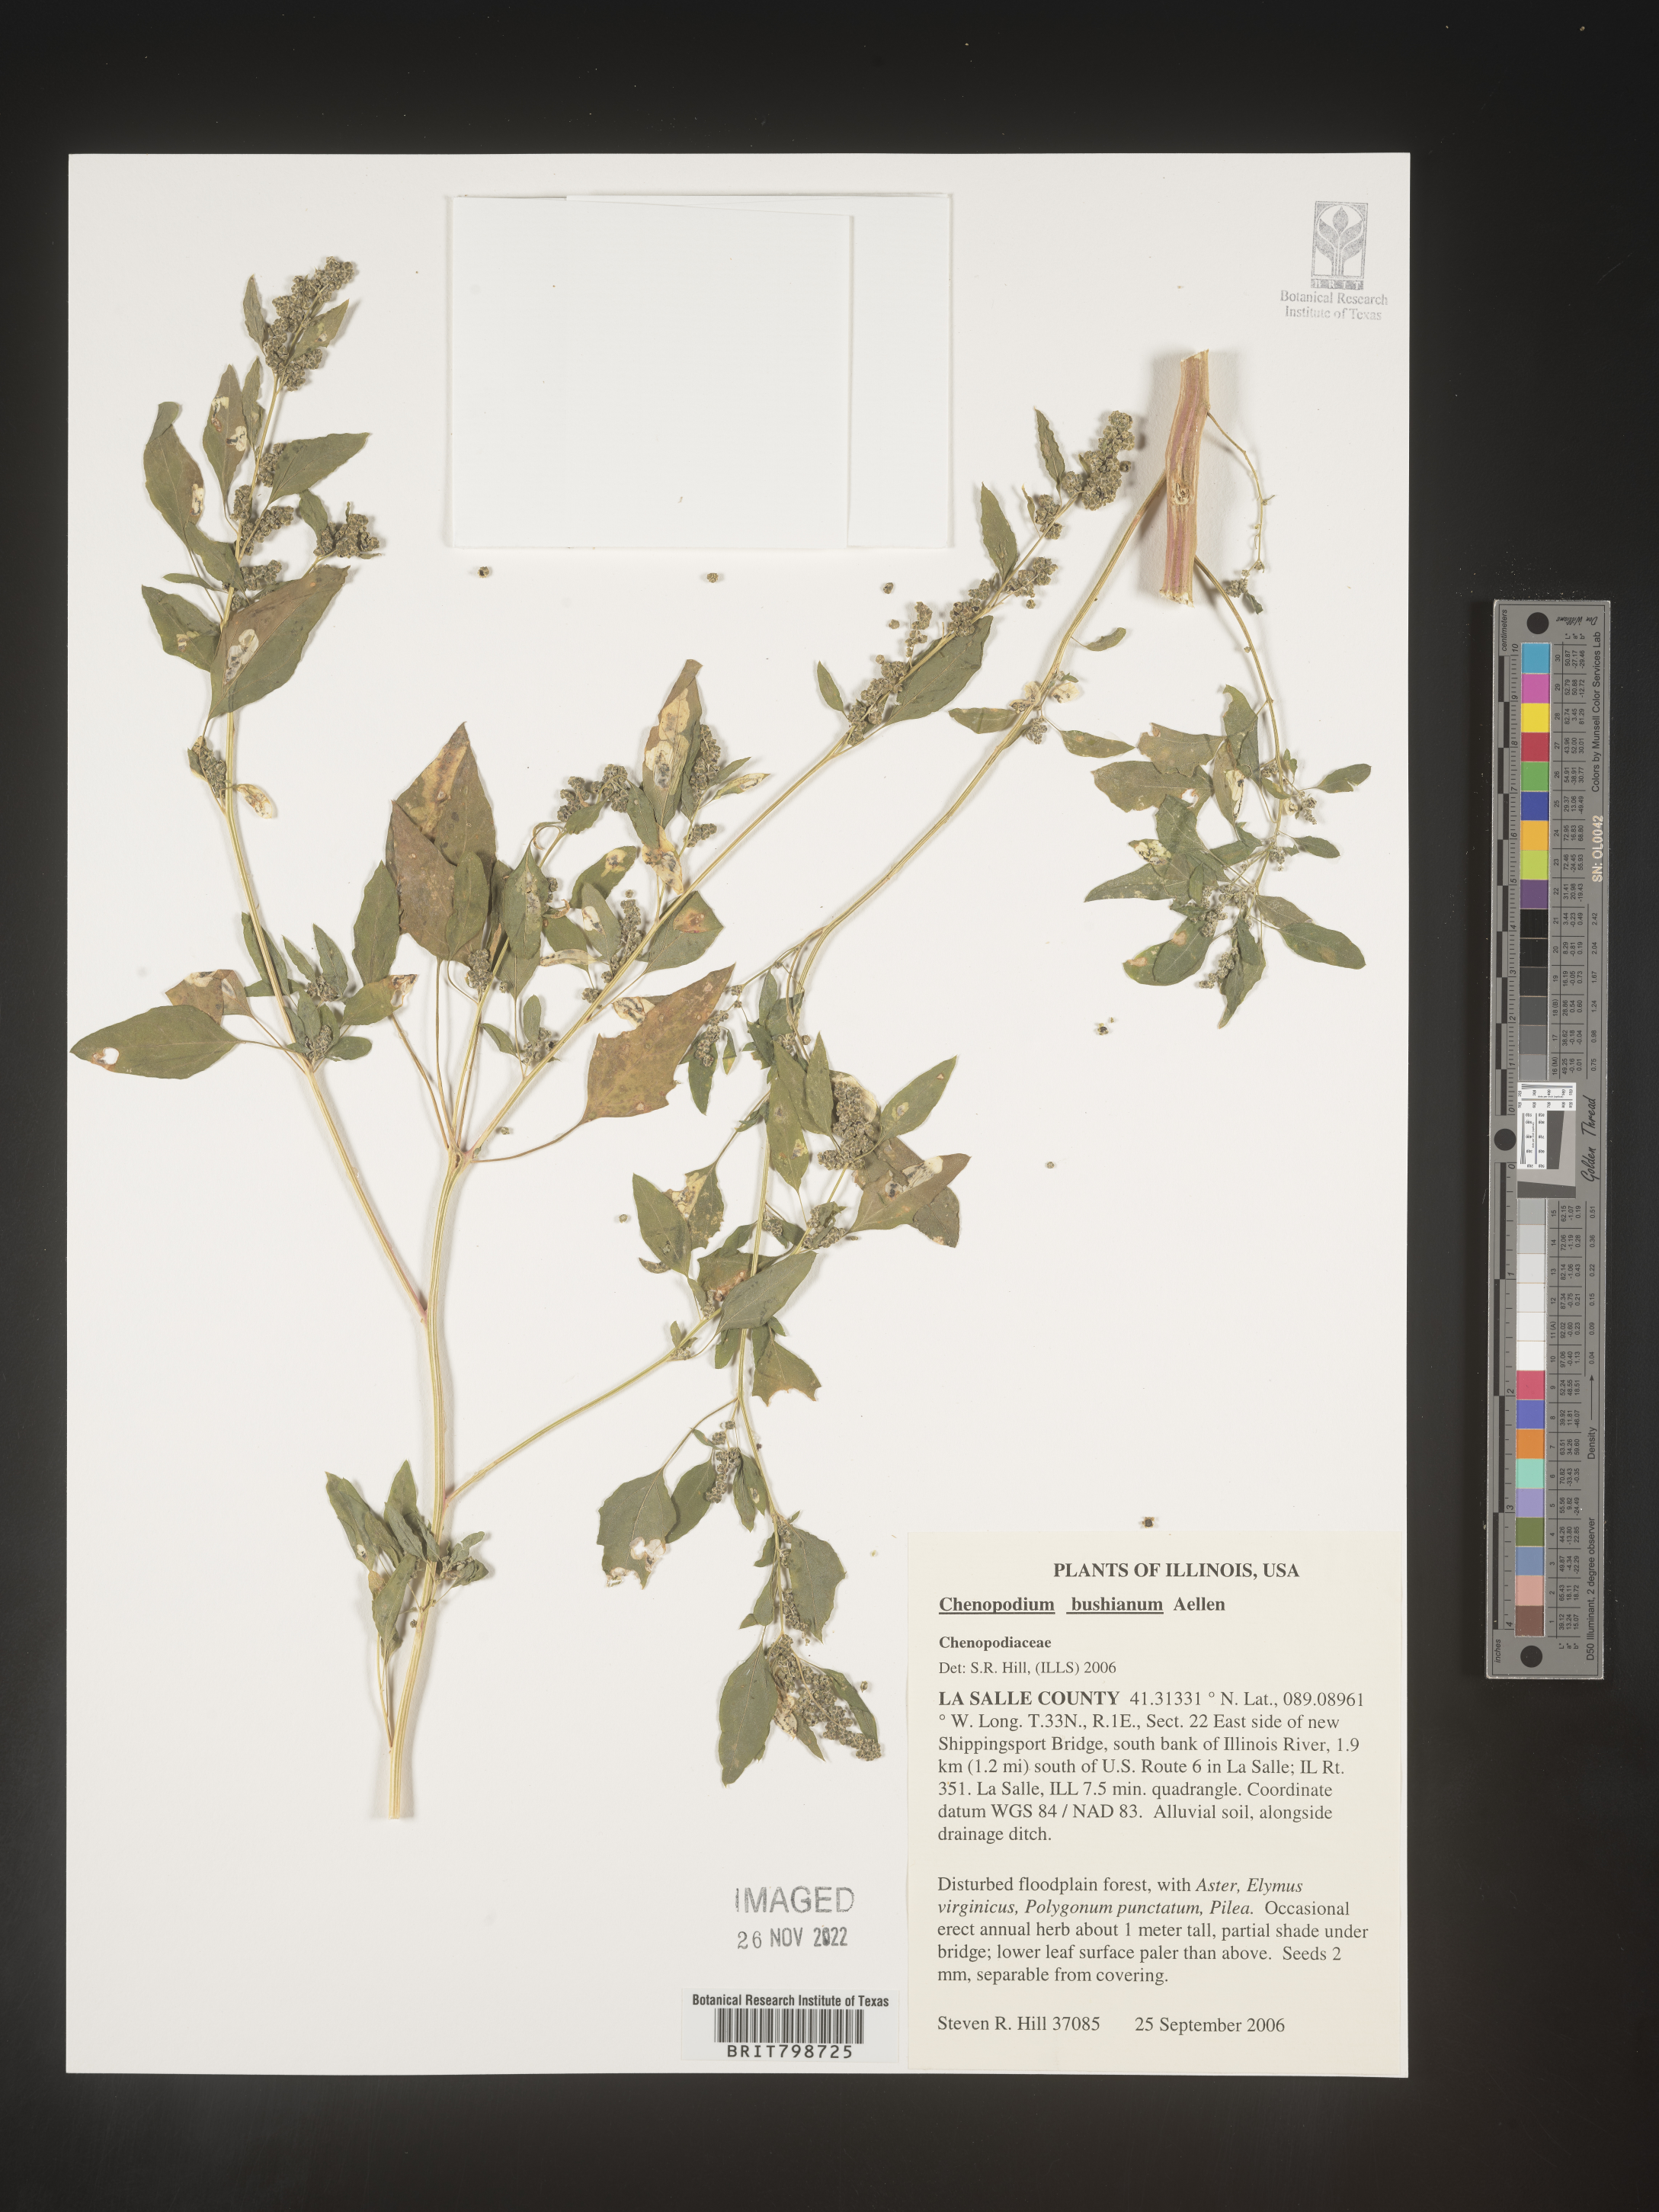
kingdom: Plantae
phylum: Tracheophyta
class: Magnoliopsida
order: Caryophyllales
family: Amaranthaceae
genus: Chenopodium
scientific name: Chenopodium berlandieri
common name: Pit-seed goosefoot
